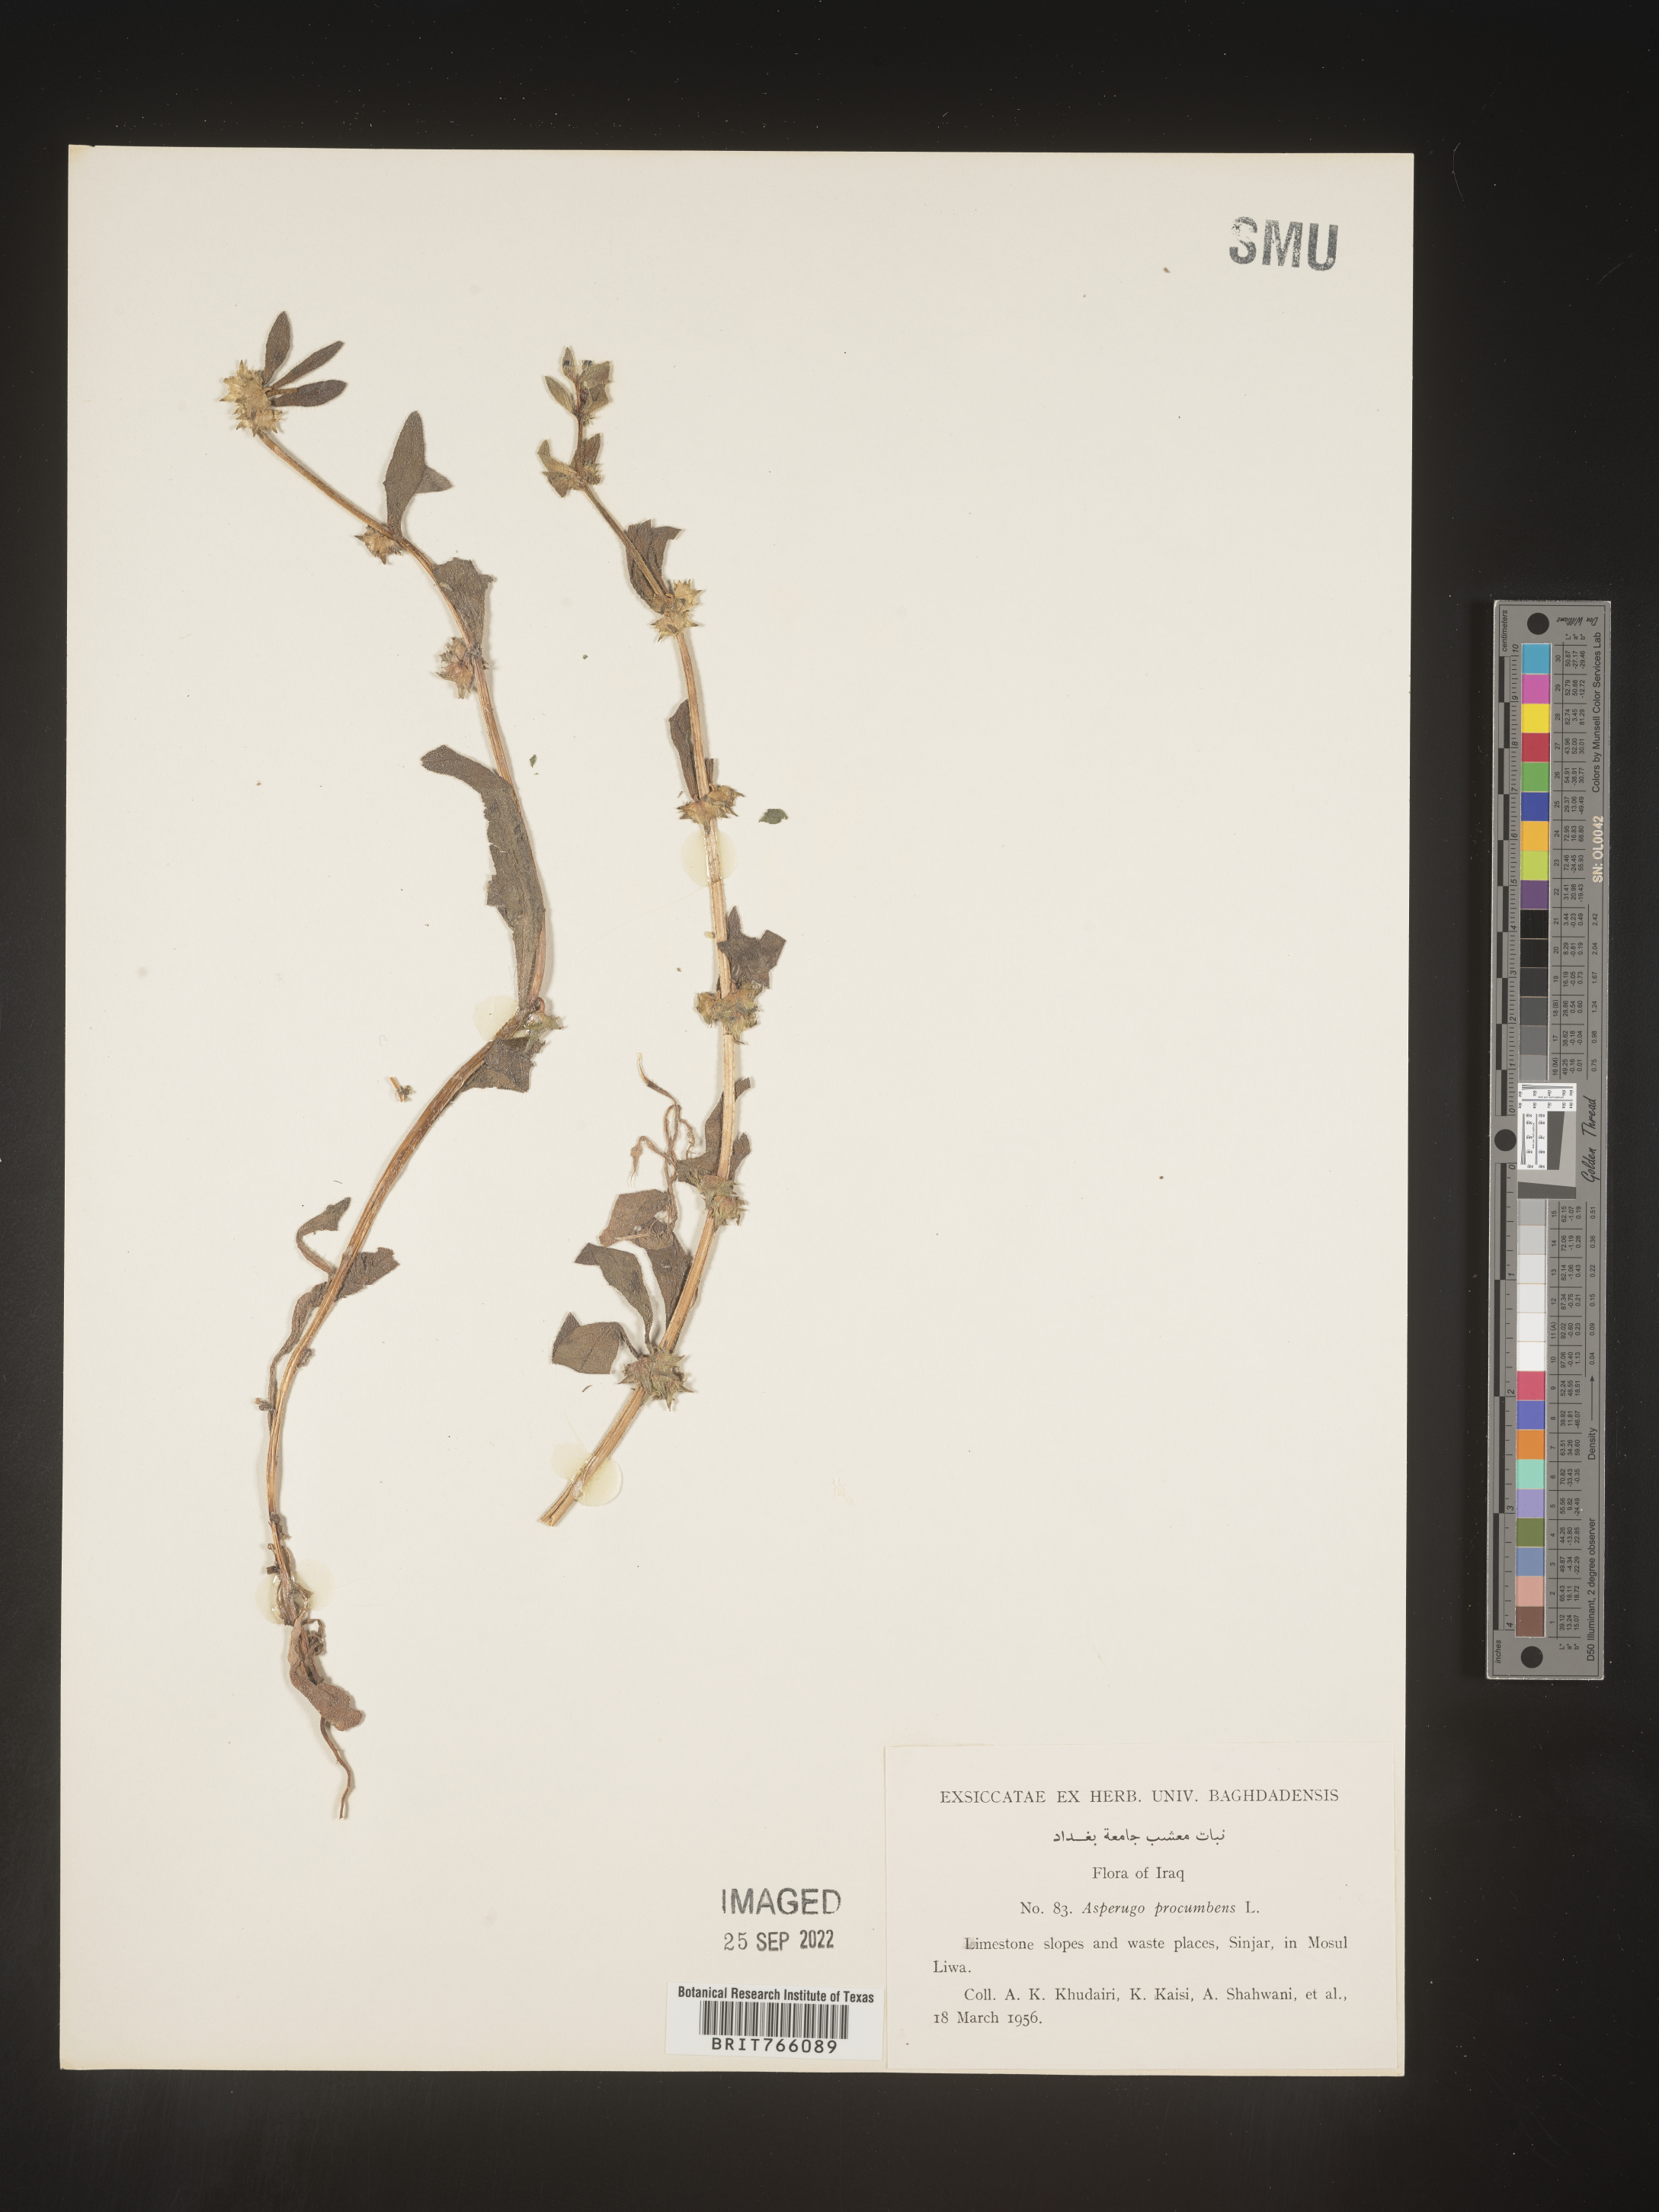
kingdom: Plantae
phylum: Tracheophyta
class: Magnoliopsida
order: Boraginales
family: Boraginaceae
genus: Asperugo
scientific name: Asperugo procumbens
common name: Madwort
